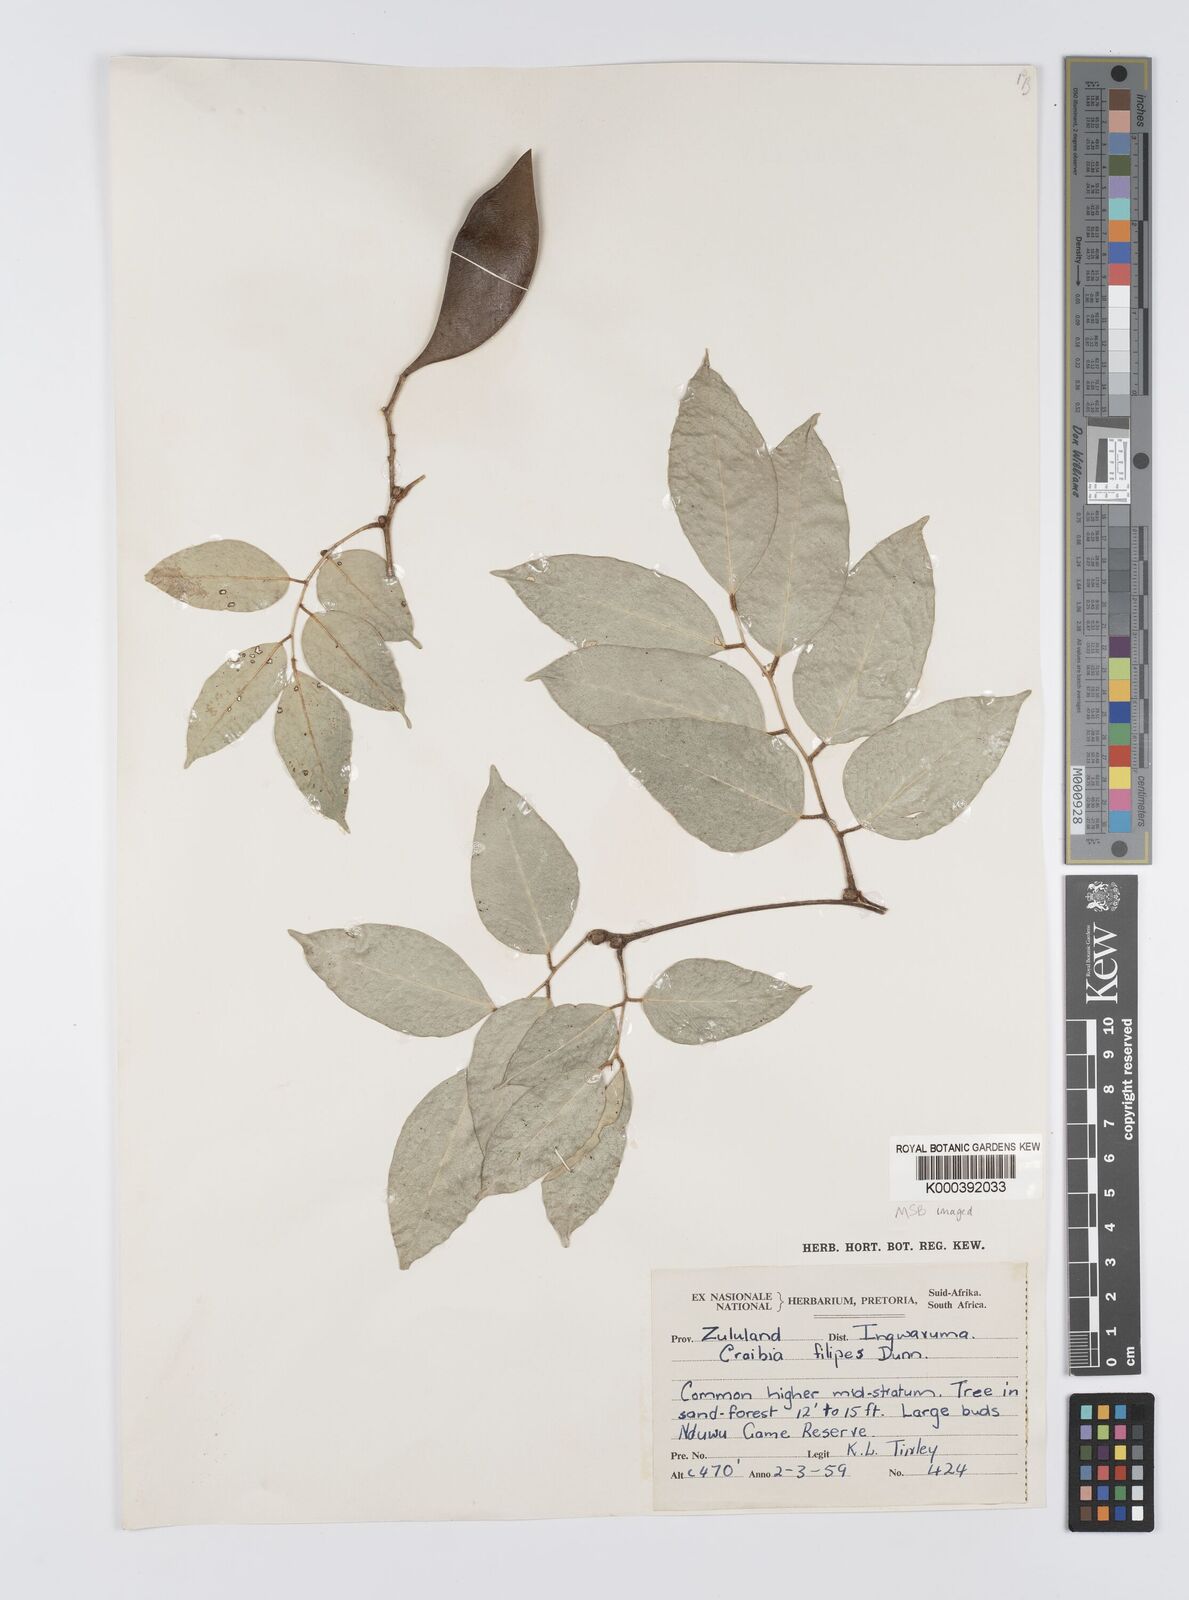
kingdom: Plantae
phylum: Tracheophyta
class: Magnoliopsida
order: Fabales
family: Fabaceae
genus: Craibia
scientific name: Craibia zimmermannii
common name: Sandforest pea-wood
